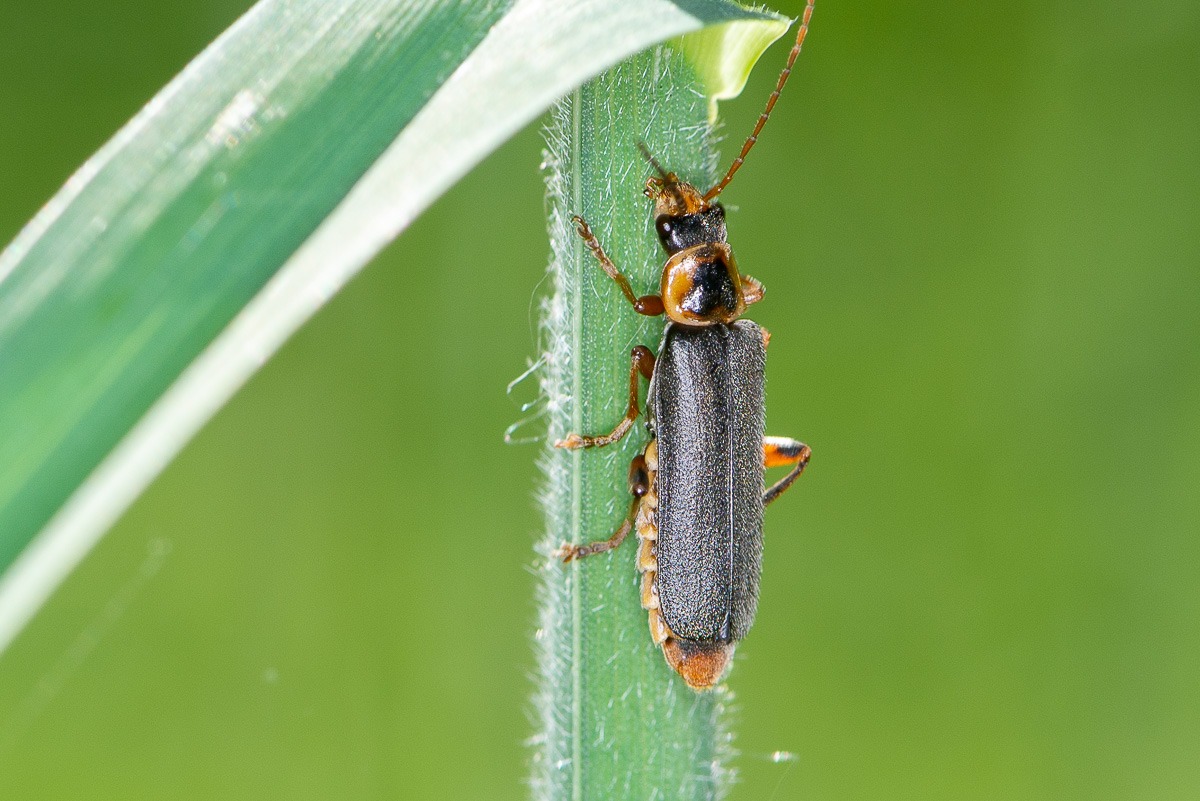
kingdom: Animalia
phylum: Arthropoda
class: Insecta
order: Coleoptera
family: Cantharidae
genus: Cantharis
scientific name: Cantharis nigricans
